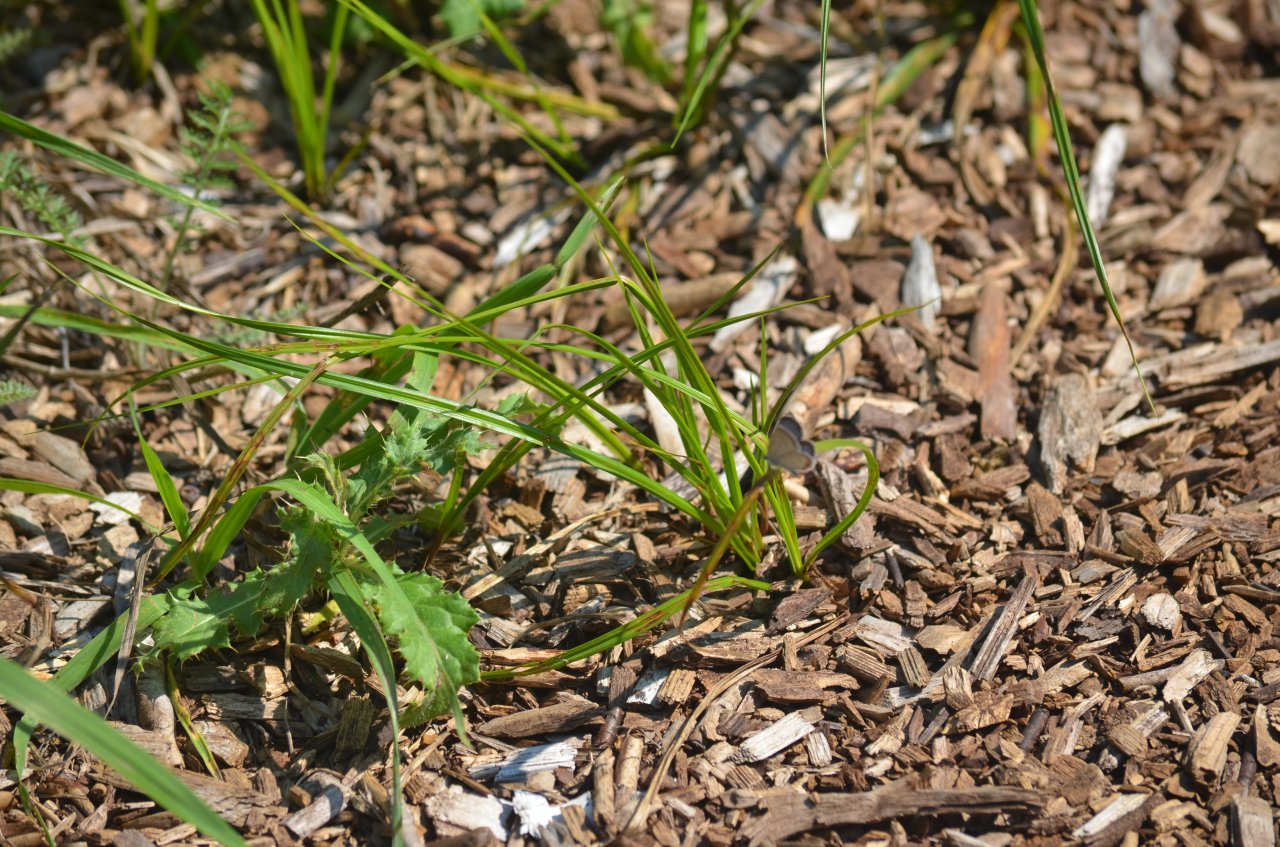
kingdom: Animalia
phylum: Arthropoda
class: Insecta
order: Lepidoptera
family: Lycaenidae
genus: Elkalyce
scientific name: Elkalyce comyntas
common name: Eastern Tailed-Blue
